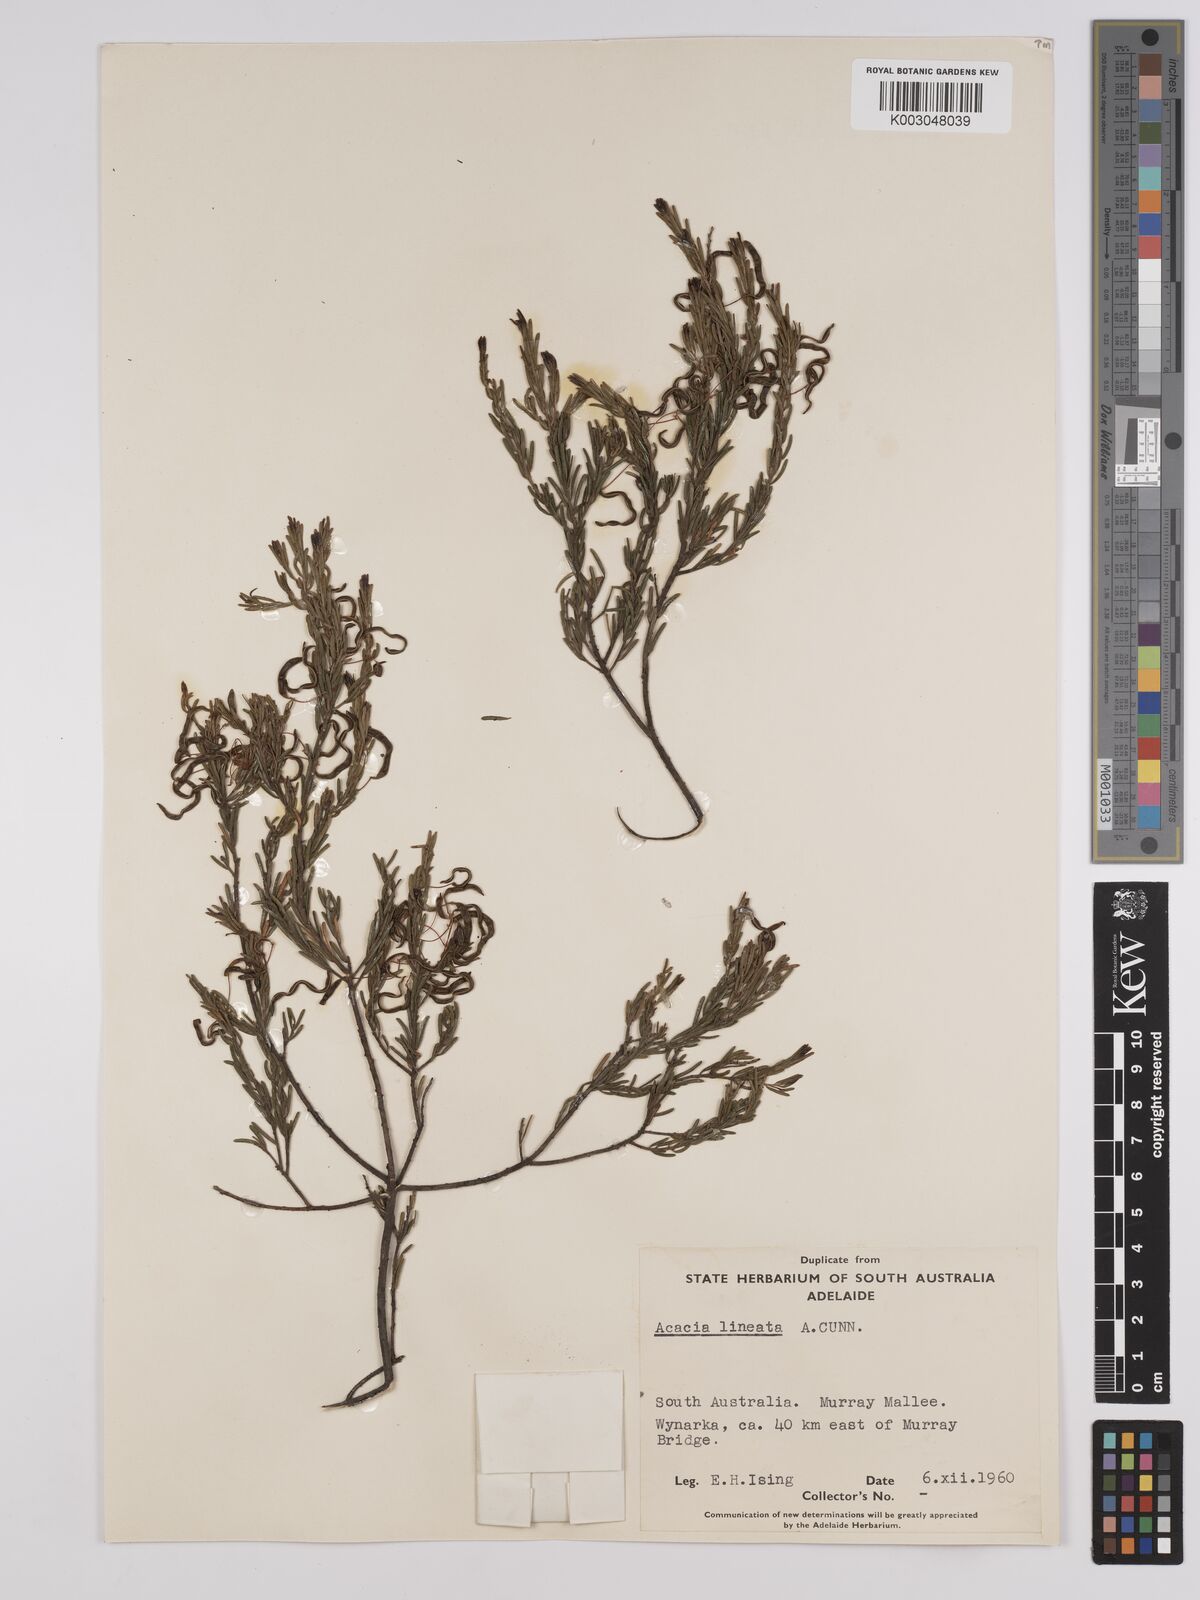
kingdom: Plantae
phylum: Tracheophyta
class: Magnoliopsida
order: Fabales
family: Fabaceae
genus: Acacia
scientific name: Acacia lineata
